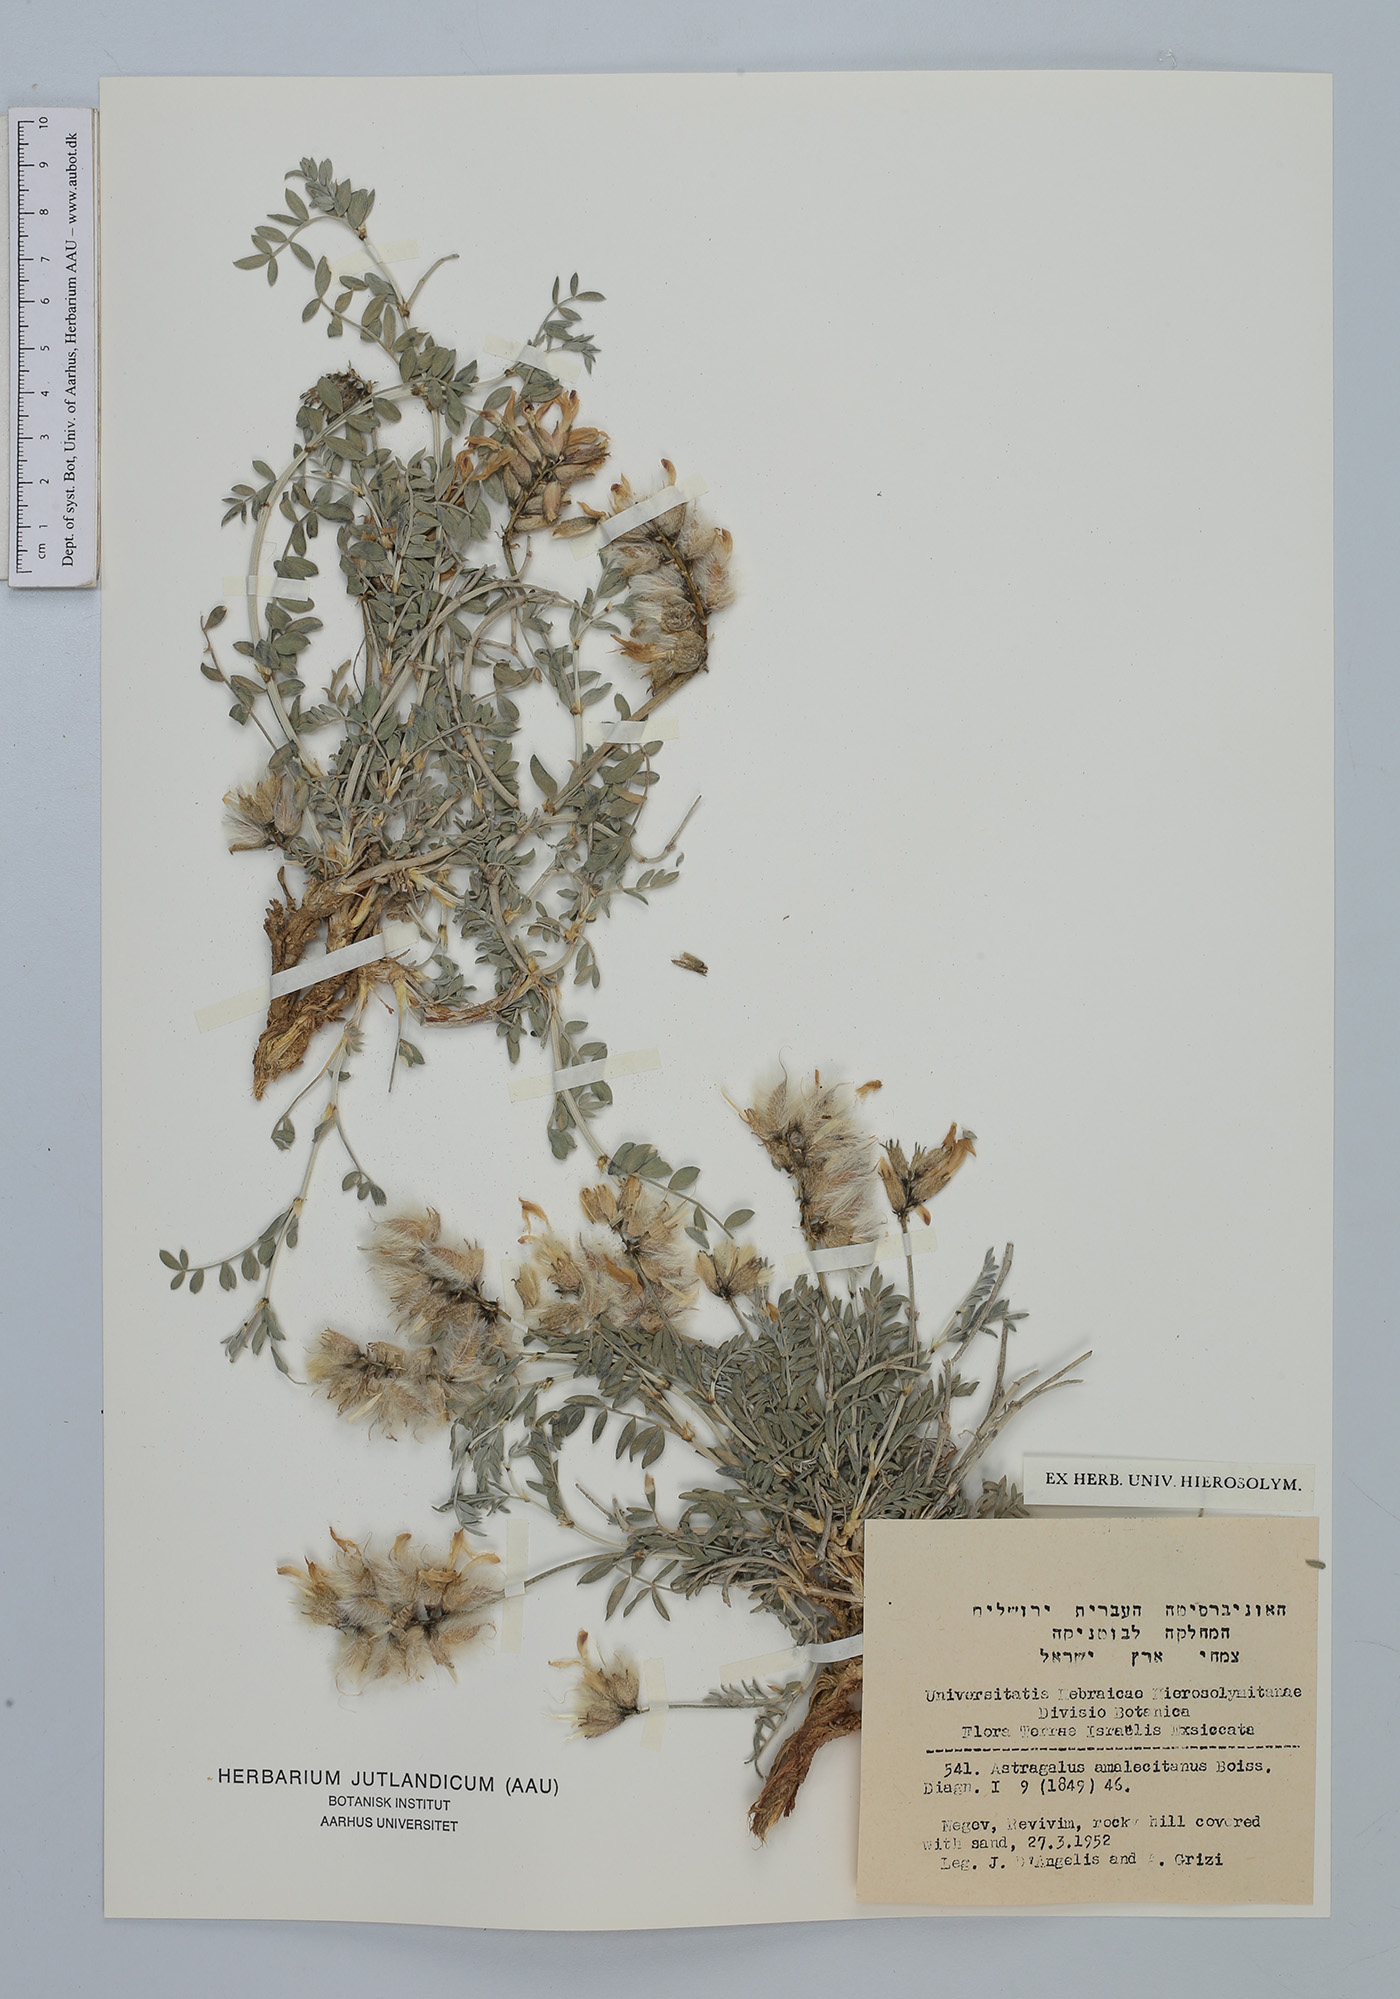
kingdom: Plantae
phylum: Tracheophyta
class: Magnoliopsida
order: Fabales
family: Fabaceae
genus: Astragalus
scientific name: Astragalus amalecitanus
